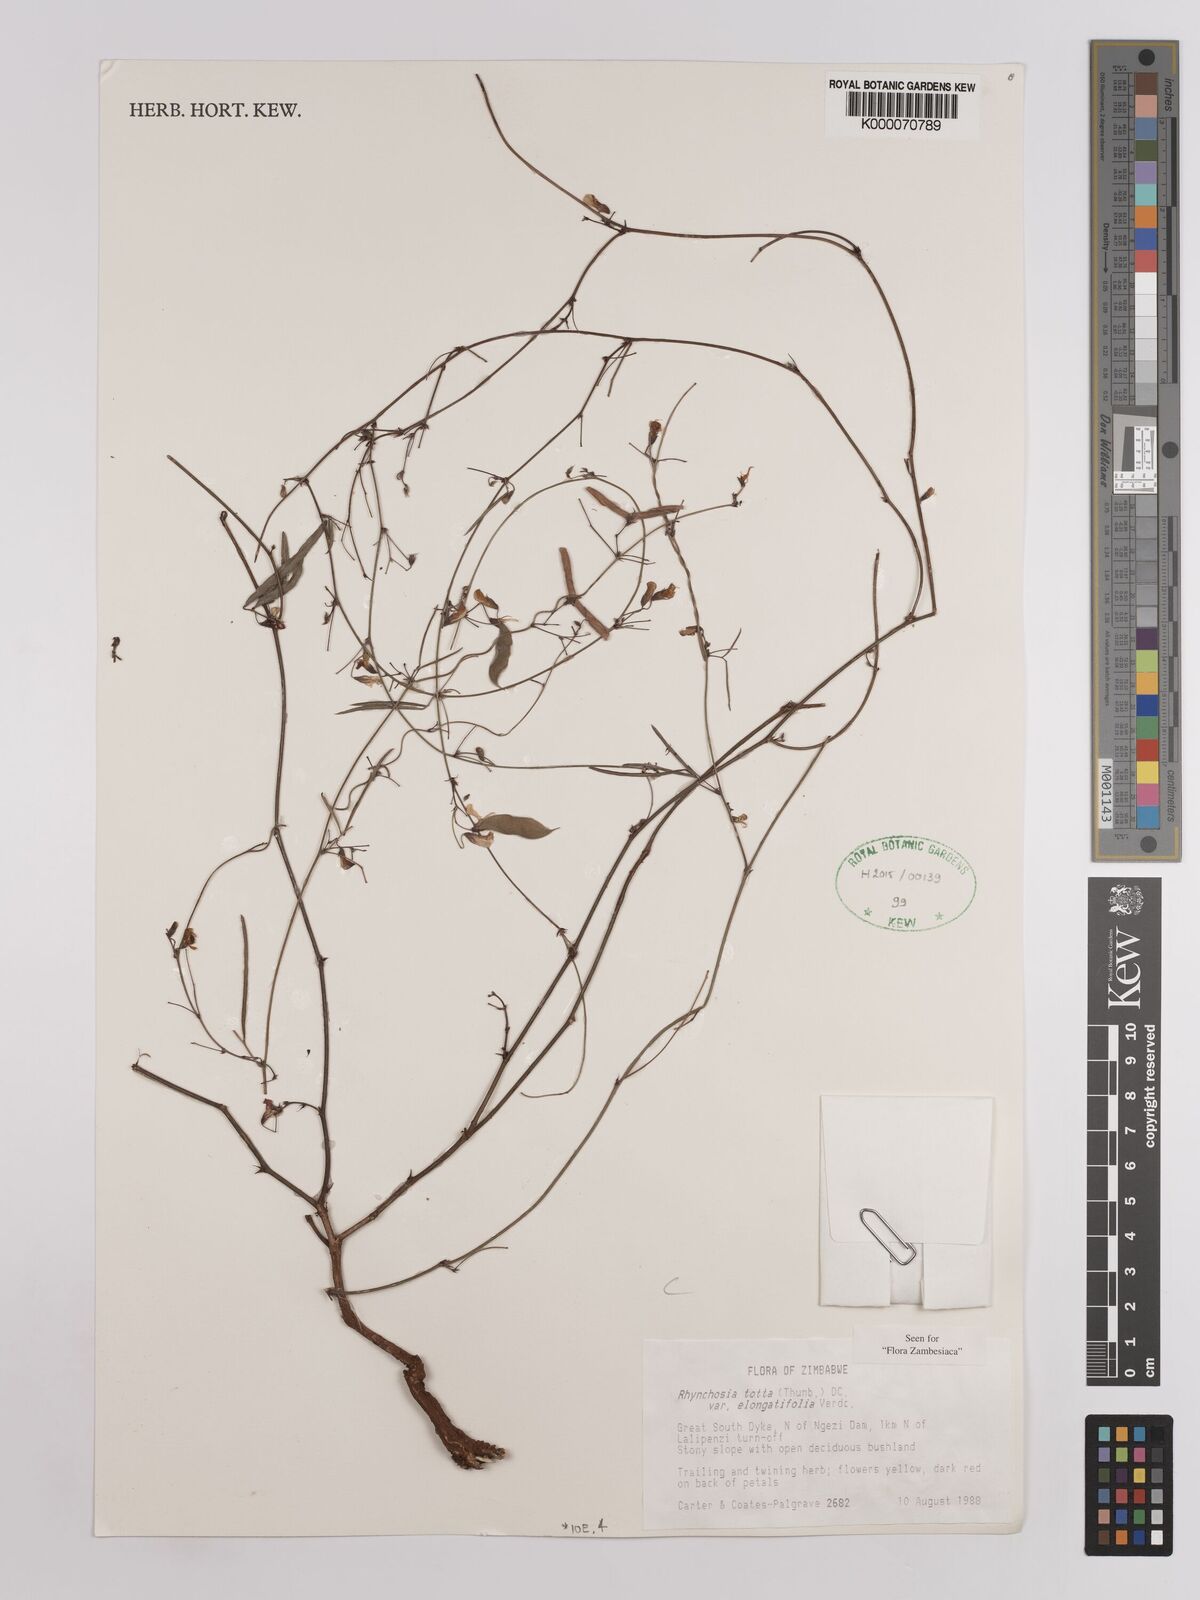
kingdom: Plantae
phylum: Tracheophyta
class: Magnoliopsida
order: Fabales
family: Fabaceae
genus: Rhynchosia
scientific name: Rhynchosia totta
